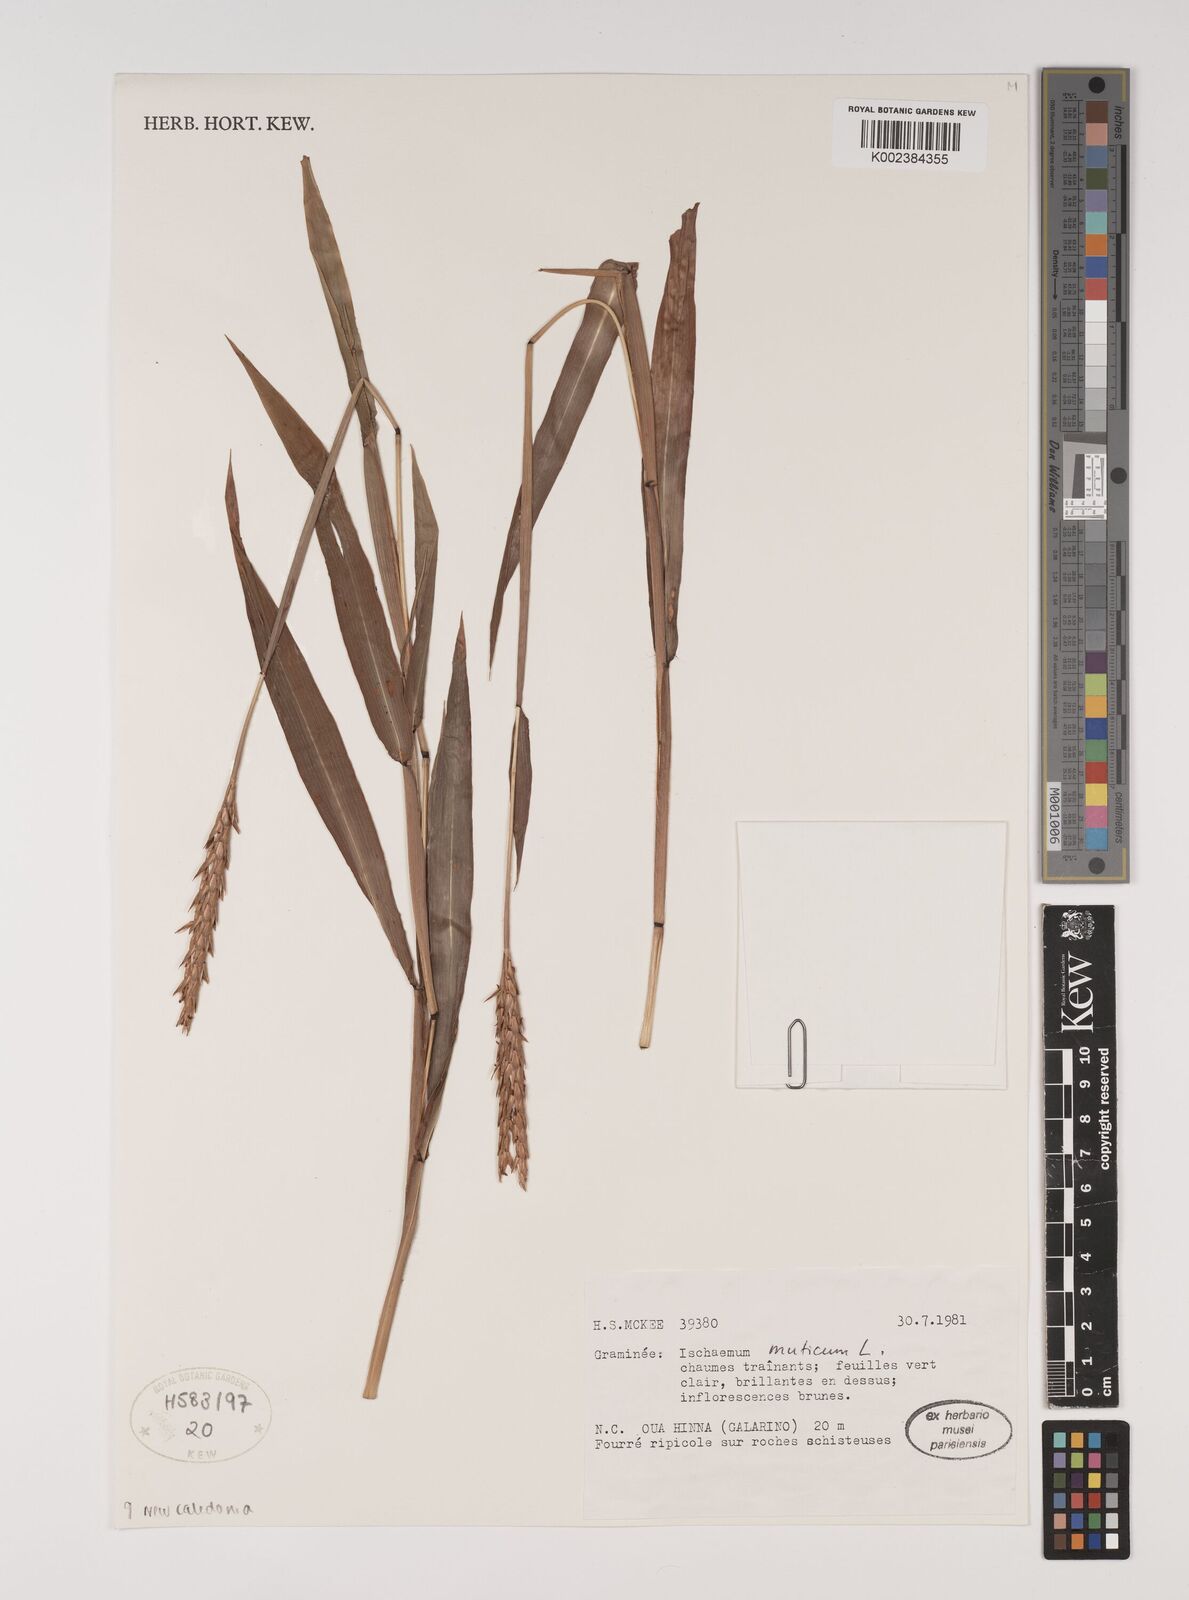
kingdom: Plantae
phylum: Tracheophyta
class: Liliopsida
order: Poales
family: Poaceae
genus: Ischaemum
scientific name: Ischaemum muticum
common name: Drought grass
